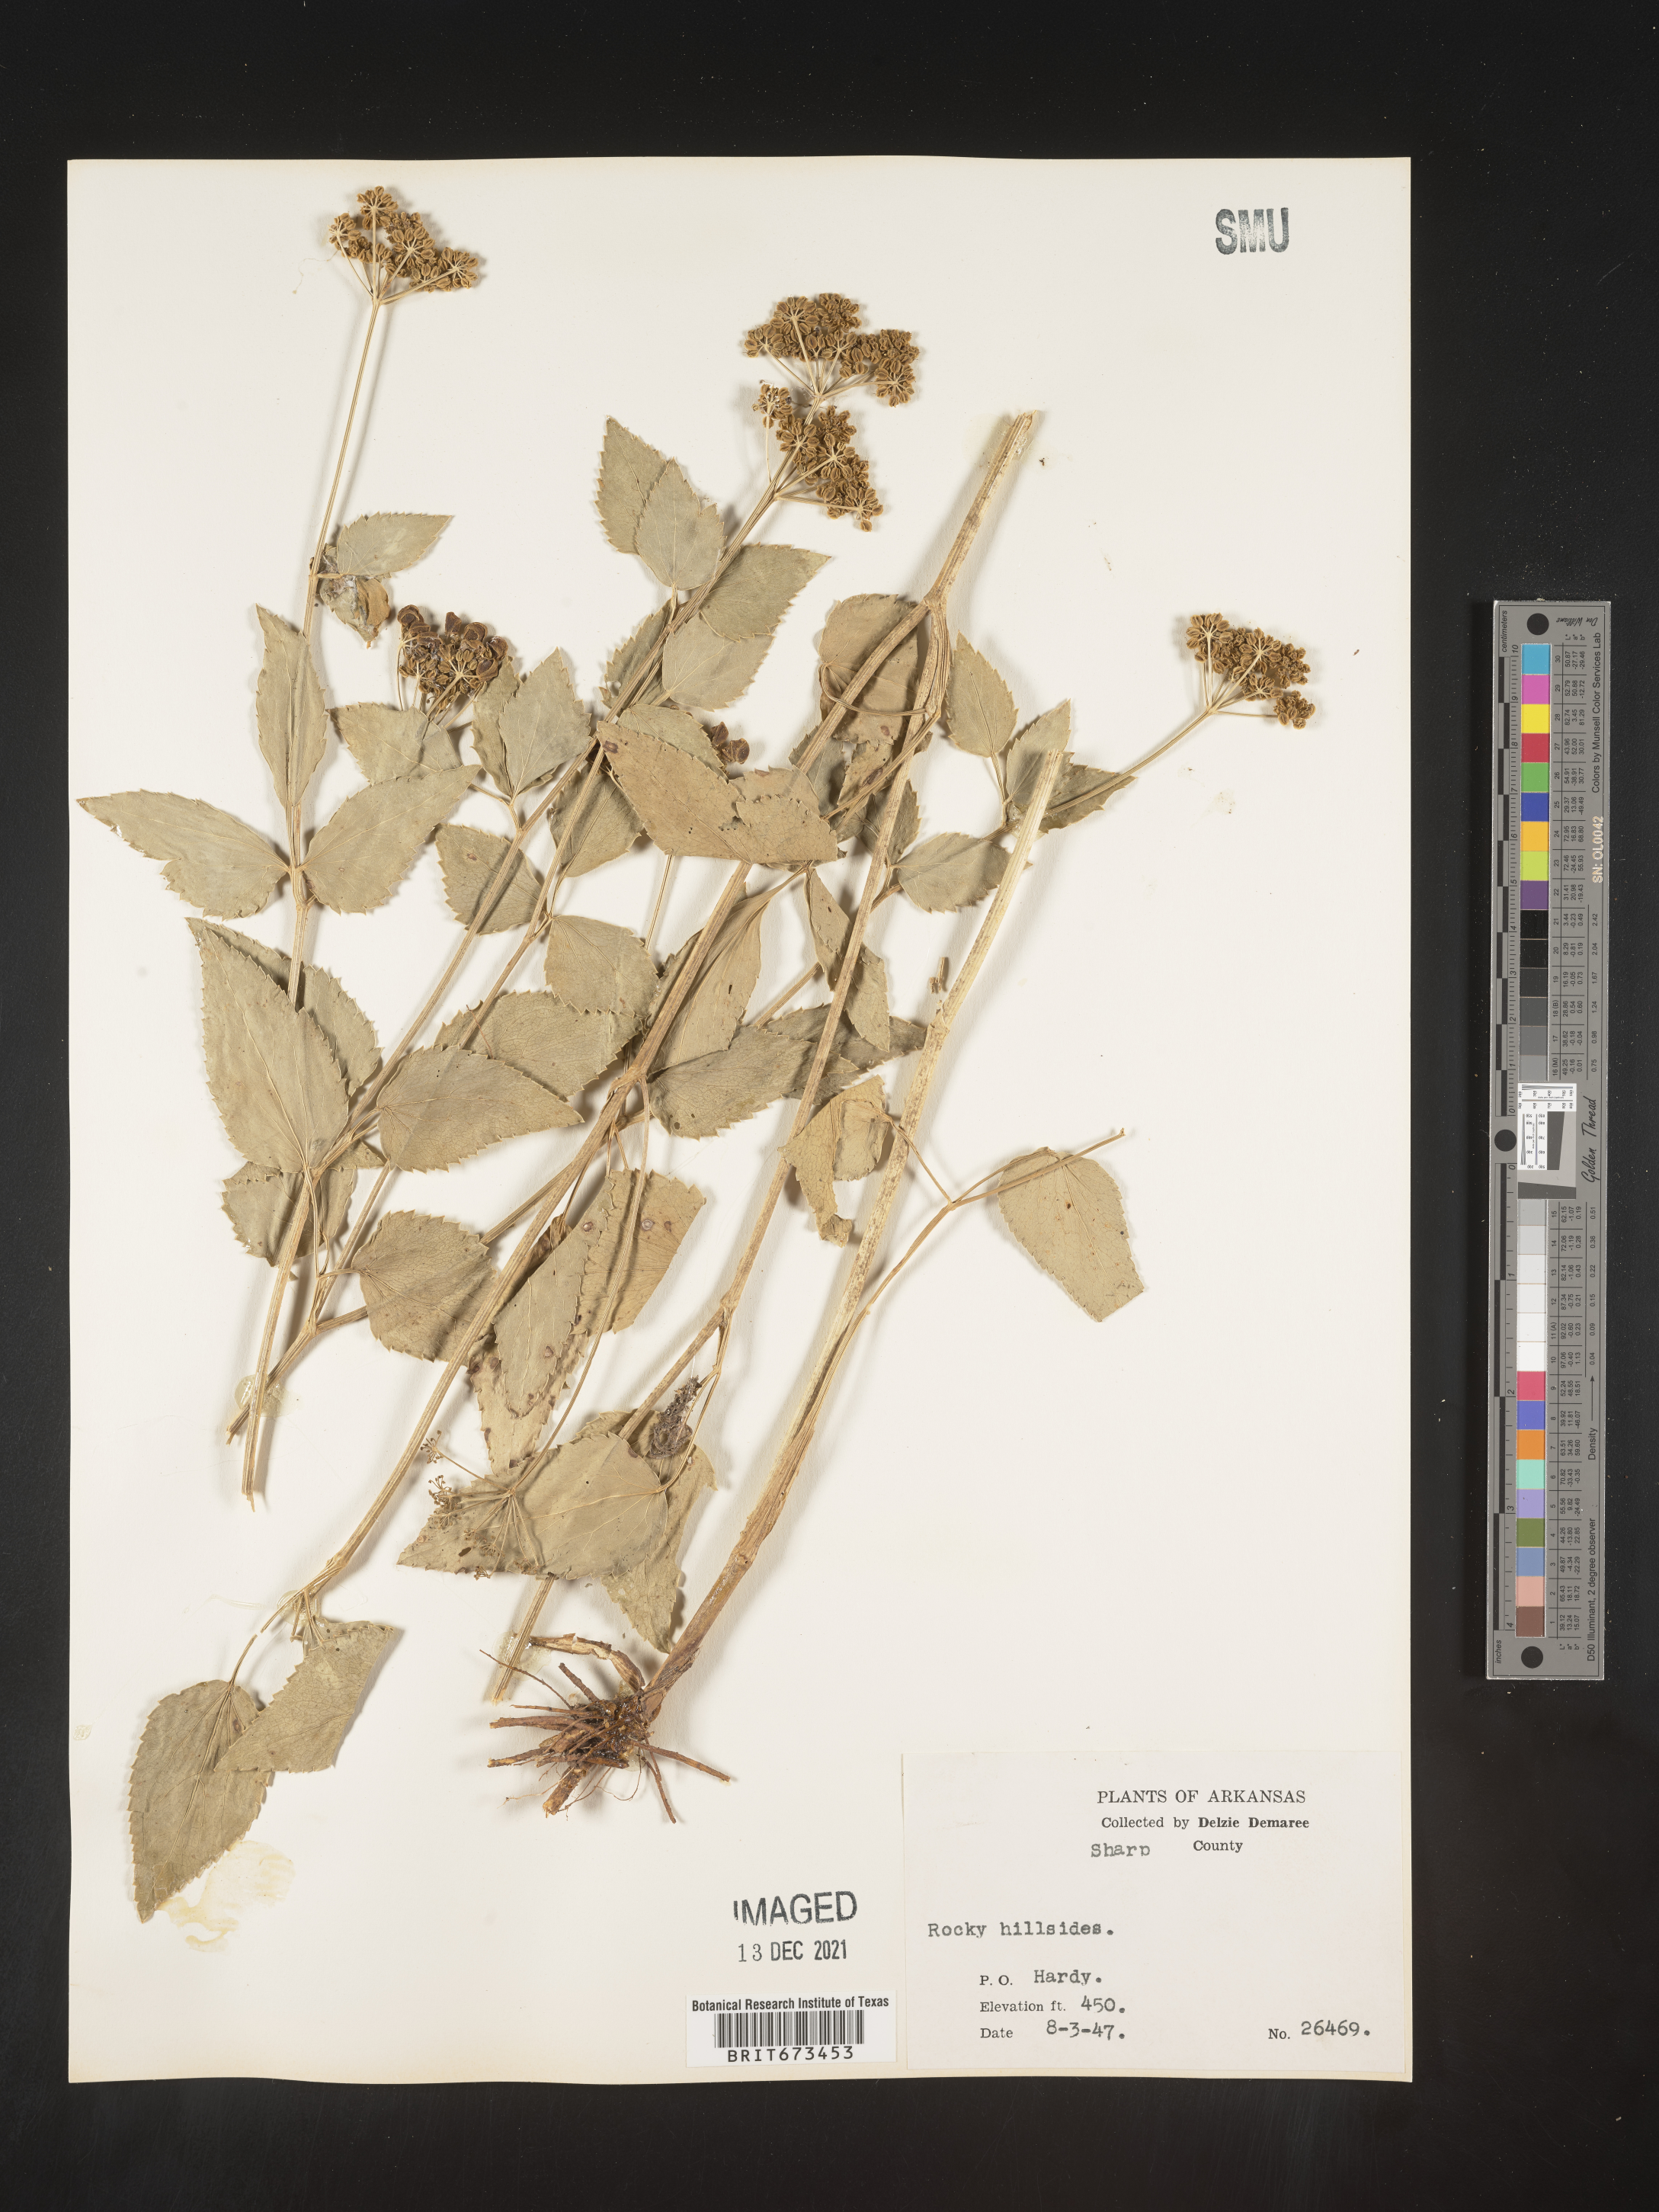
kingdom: Plantae
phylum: Tracheophyta
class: Magnoliopsida
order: Apiales
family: Apiaceae
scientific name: Apiaceae
